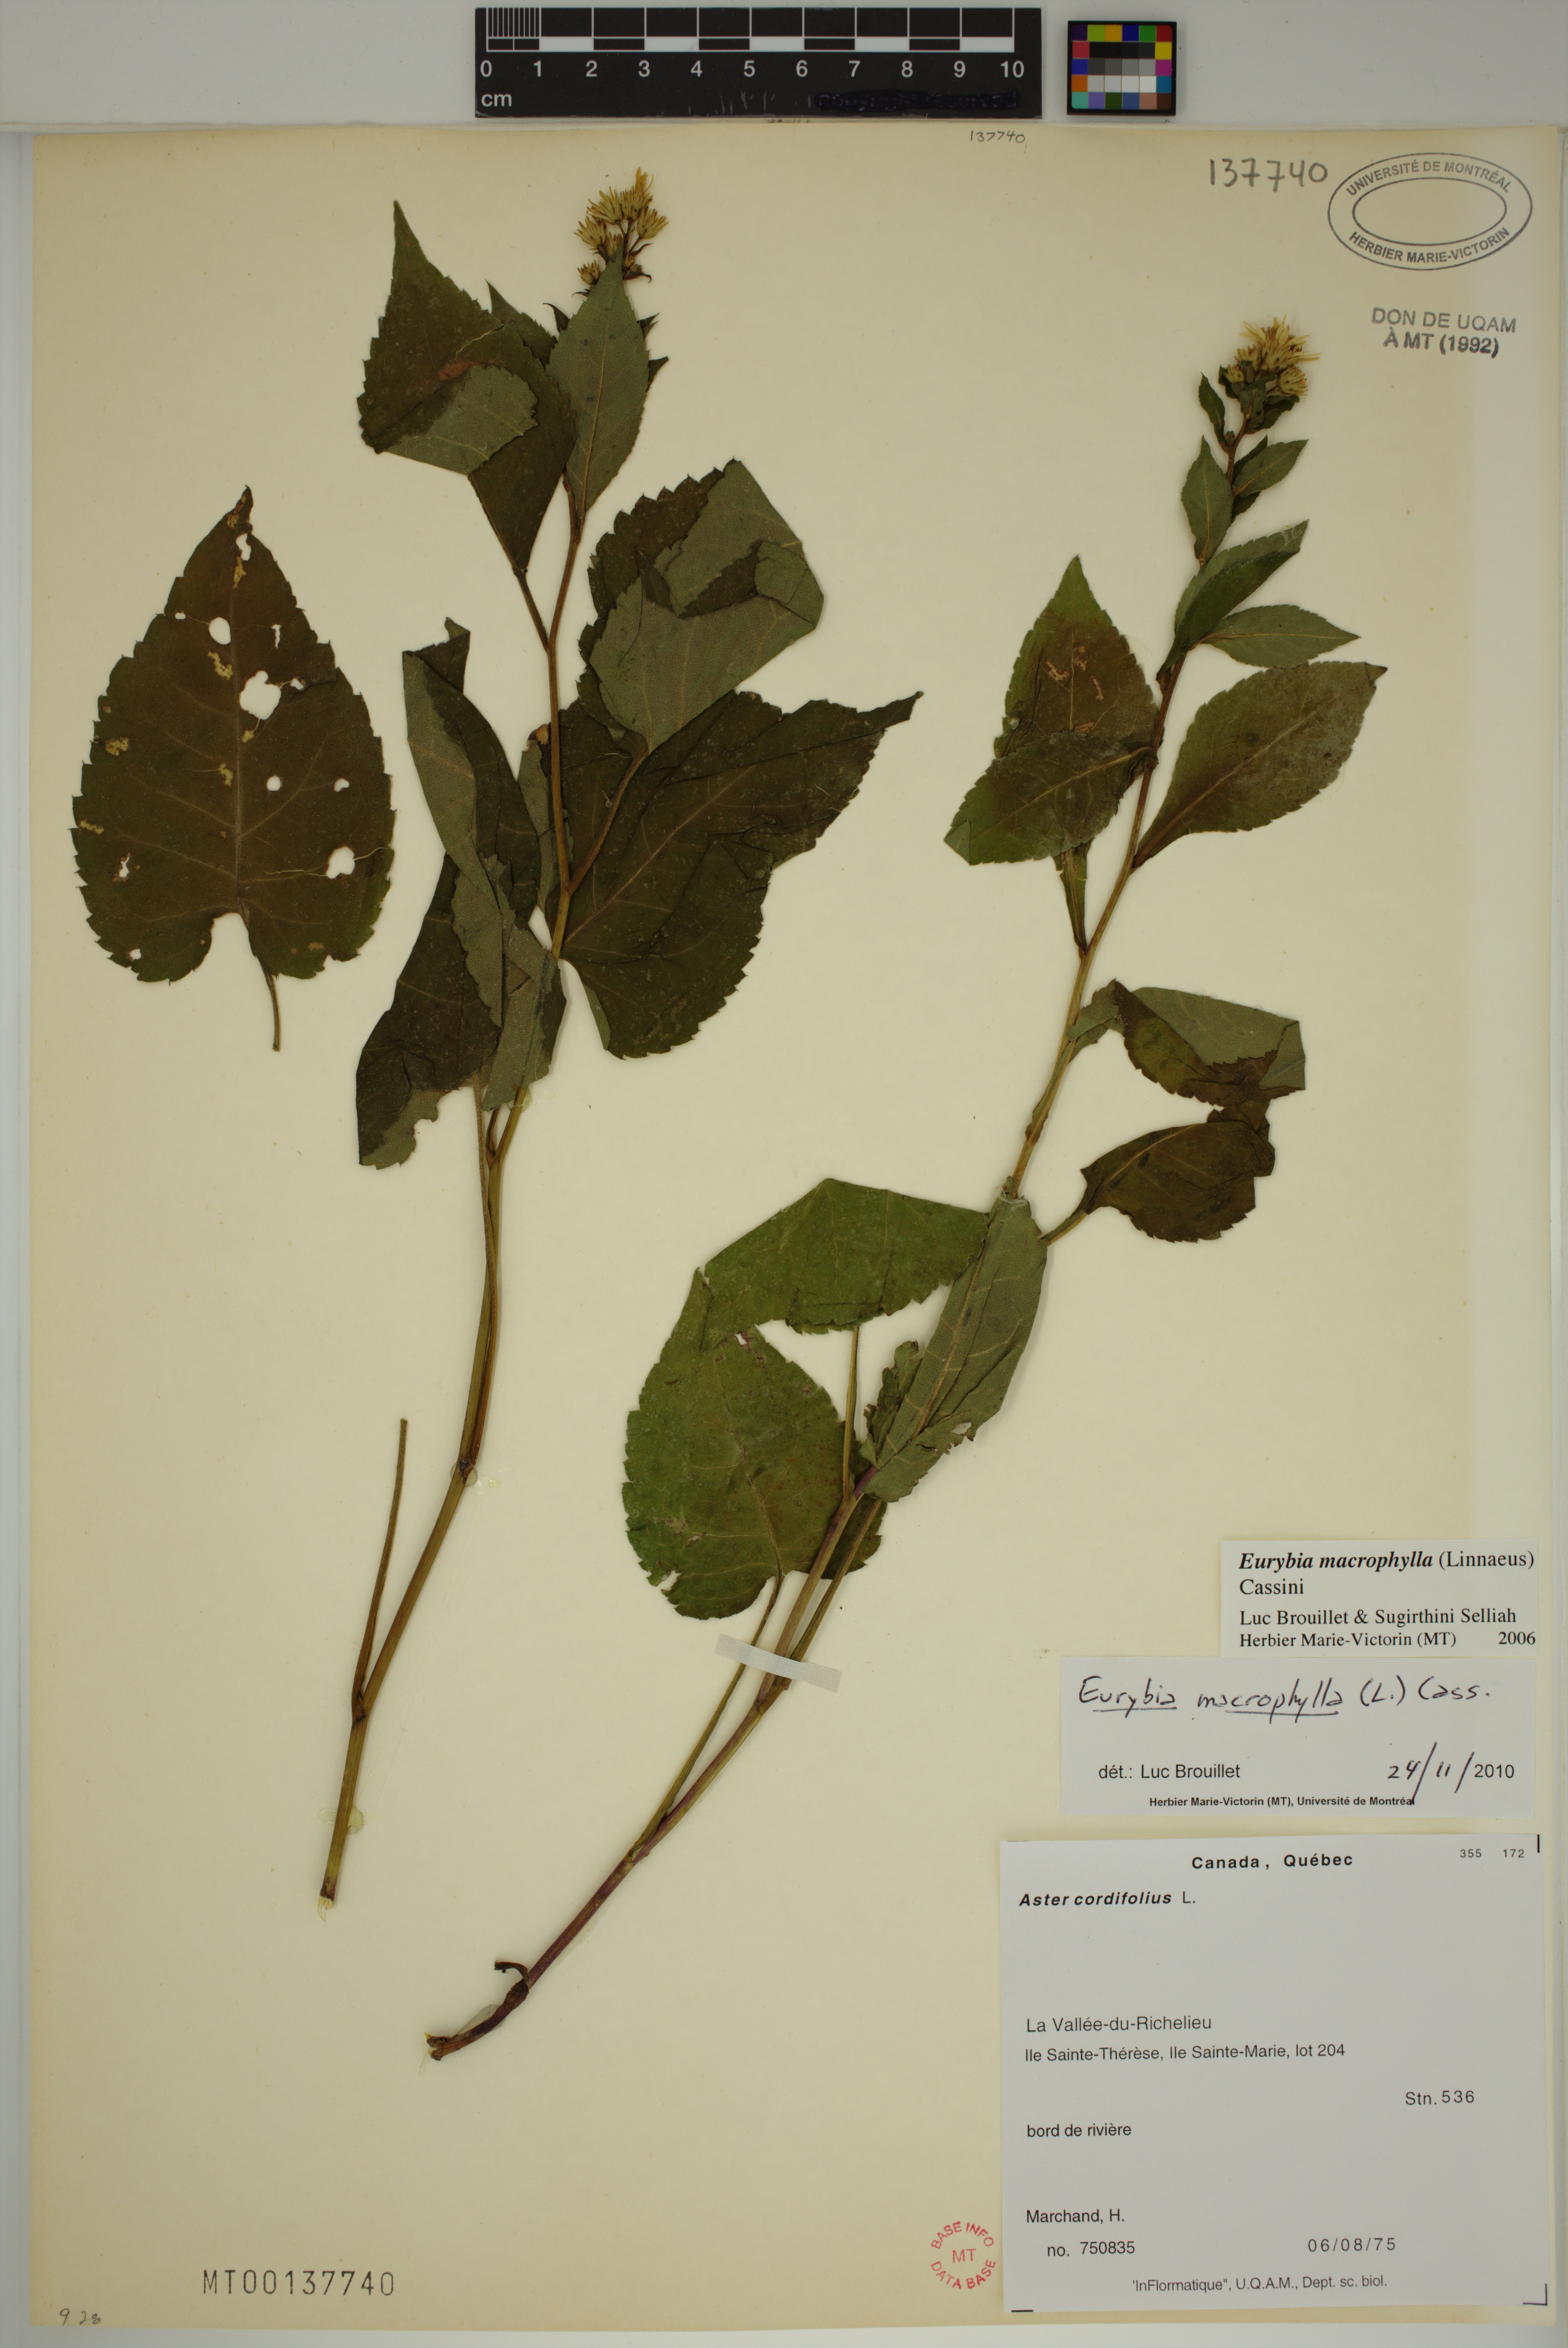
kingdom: Plantae
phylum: Tracheophyta
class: Magnoliopsida
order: Asterales
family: Asteraceae
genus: Eurybia
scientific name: Eurybia macrophylla
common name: Big-leaved aster
